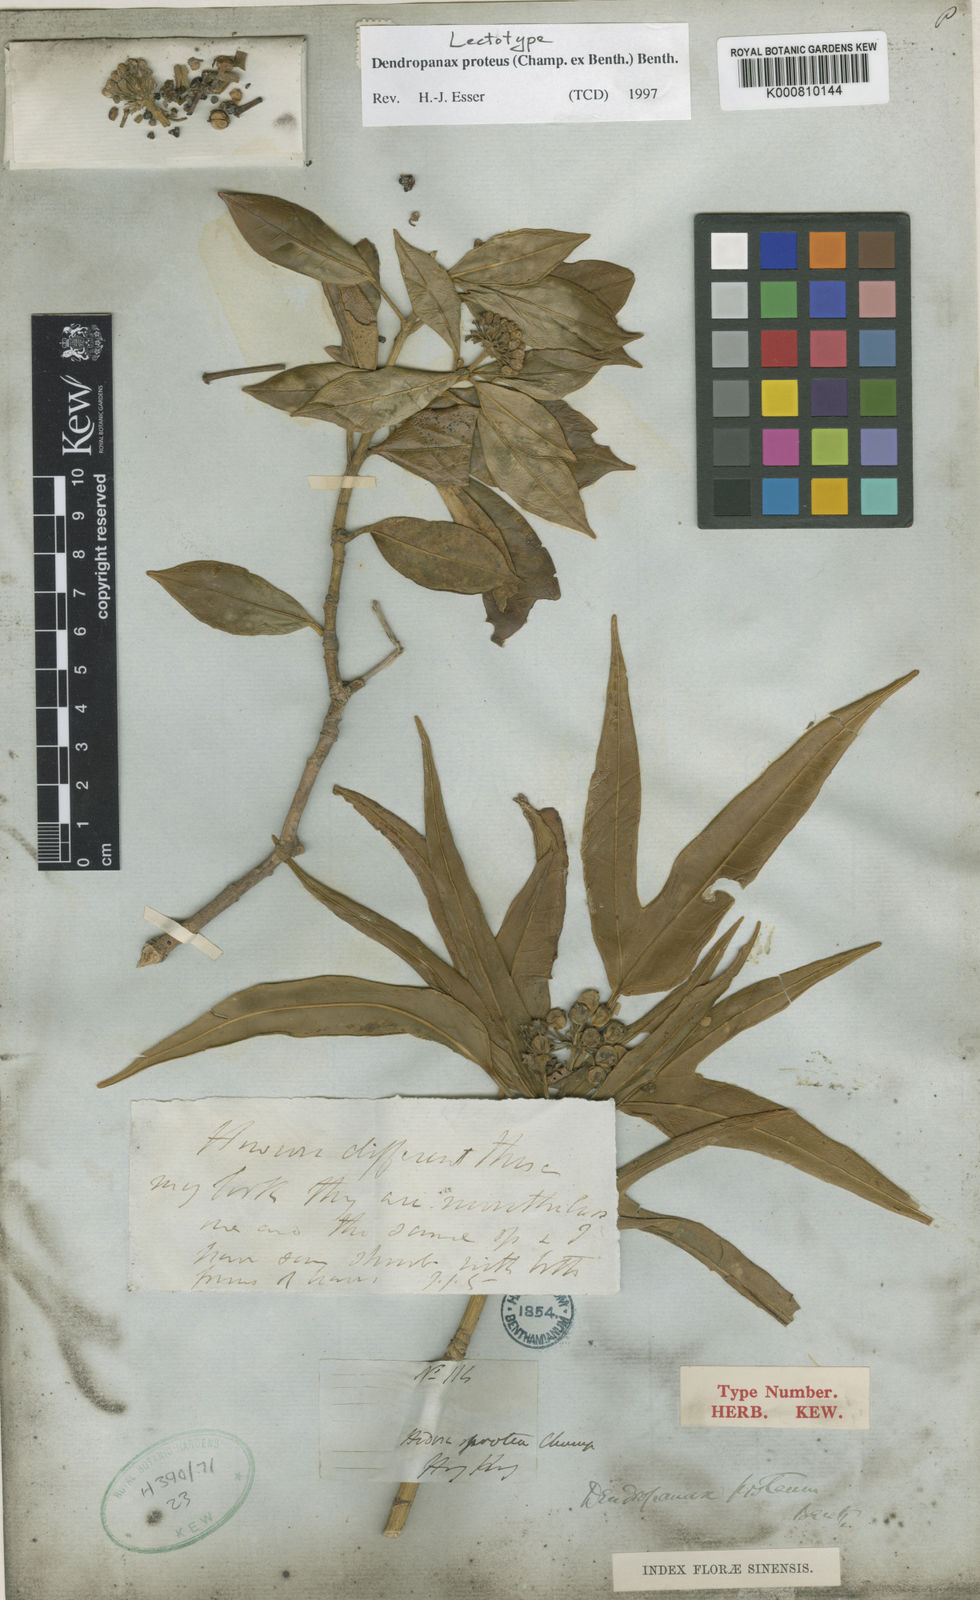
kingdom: Plantae
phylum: Tracheophyta
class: Magnoliopsida
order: Apiales
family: Araliaceae
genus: Dendropanax
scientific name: Dendropanax proteus
